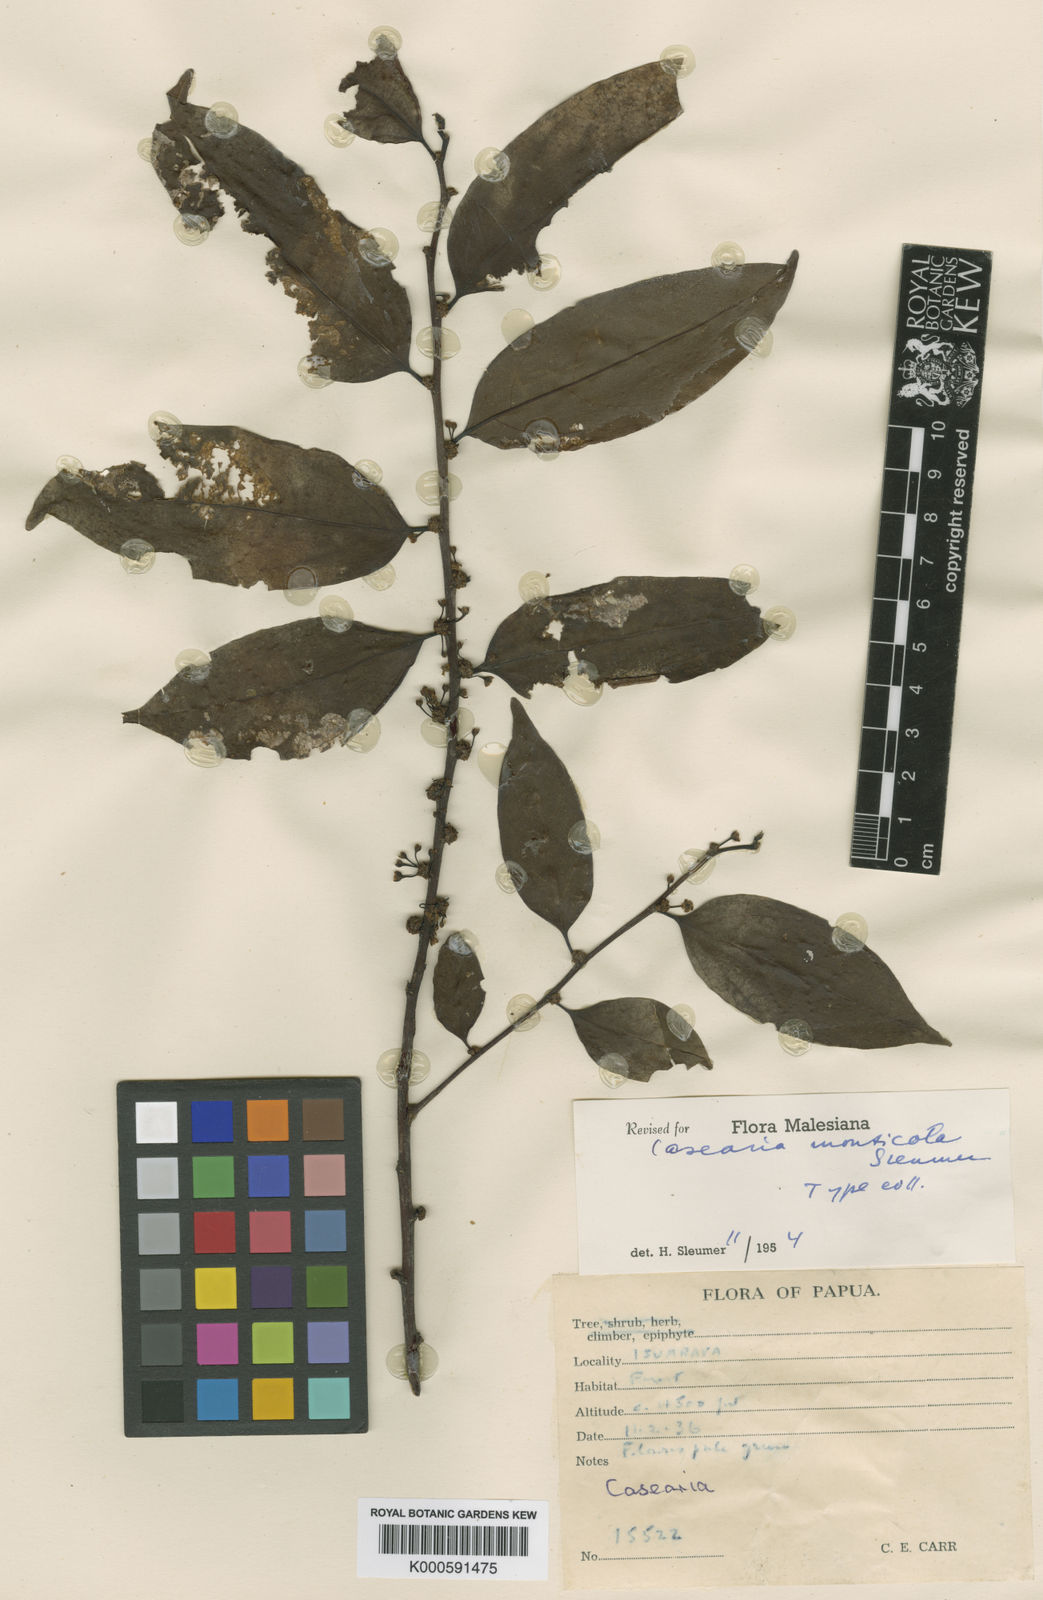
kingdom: Plantae
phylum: Tracheophyta
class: Magnoliopsida
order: Malpighiales
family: Salicaceae
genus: Casearia
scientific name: Casearia monticola
